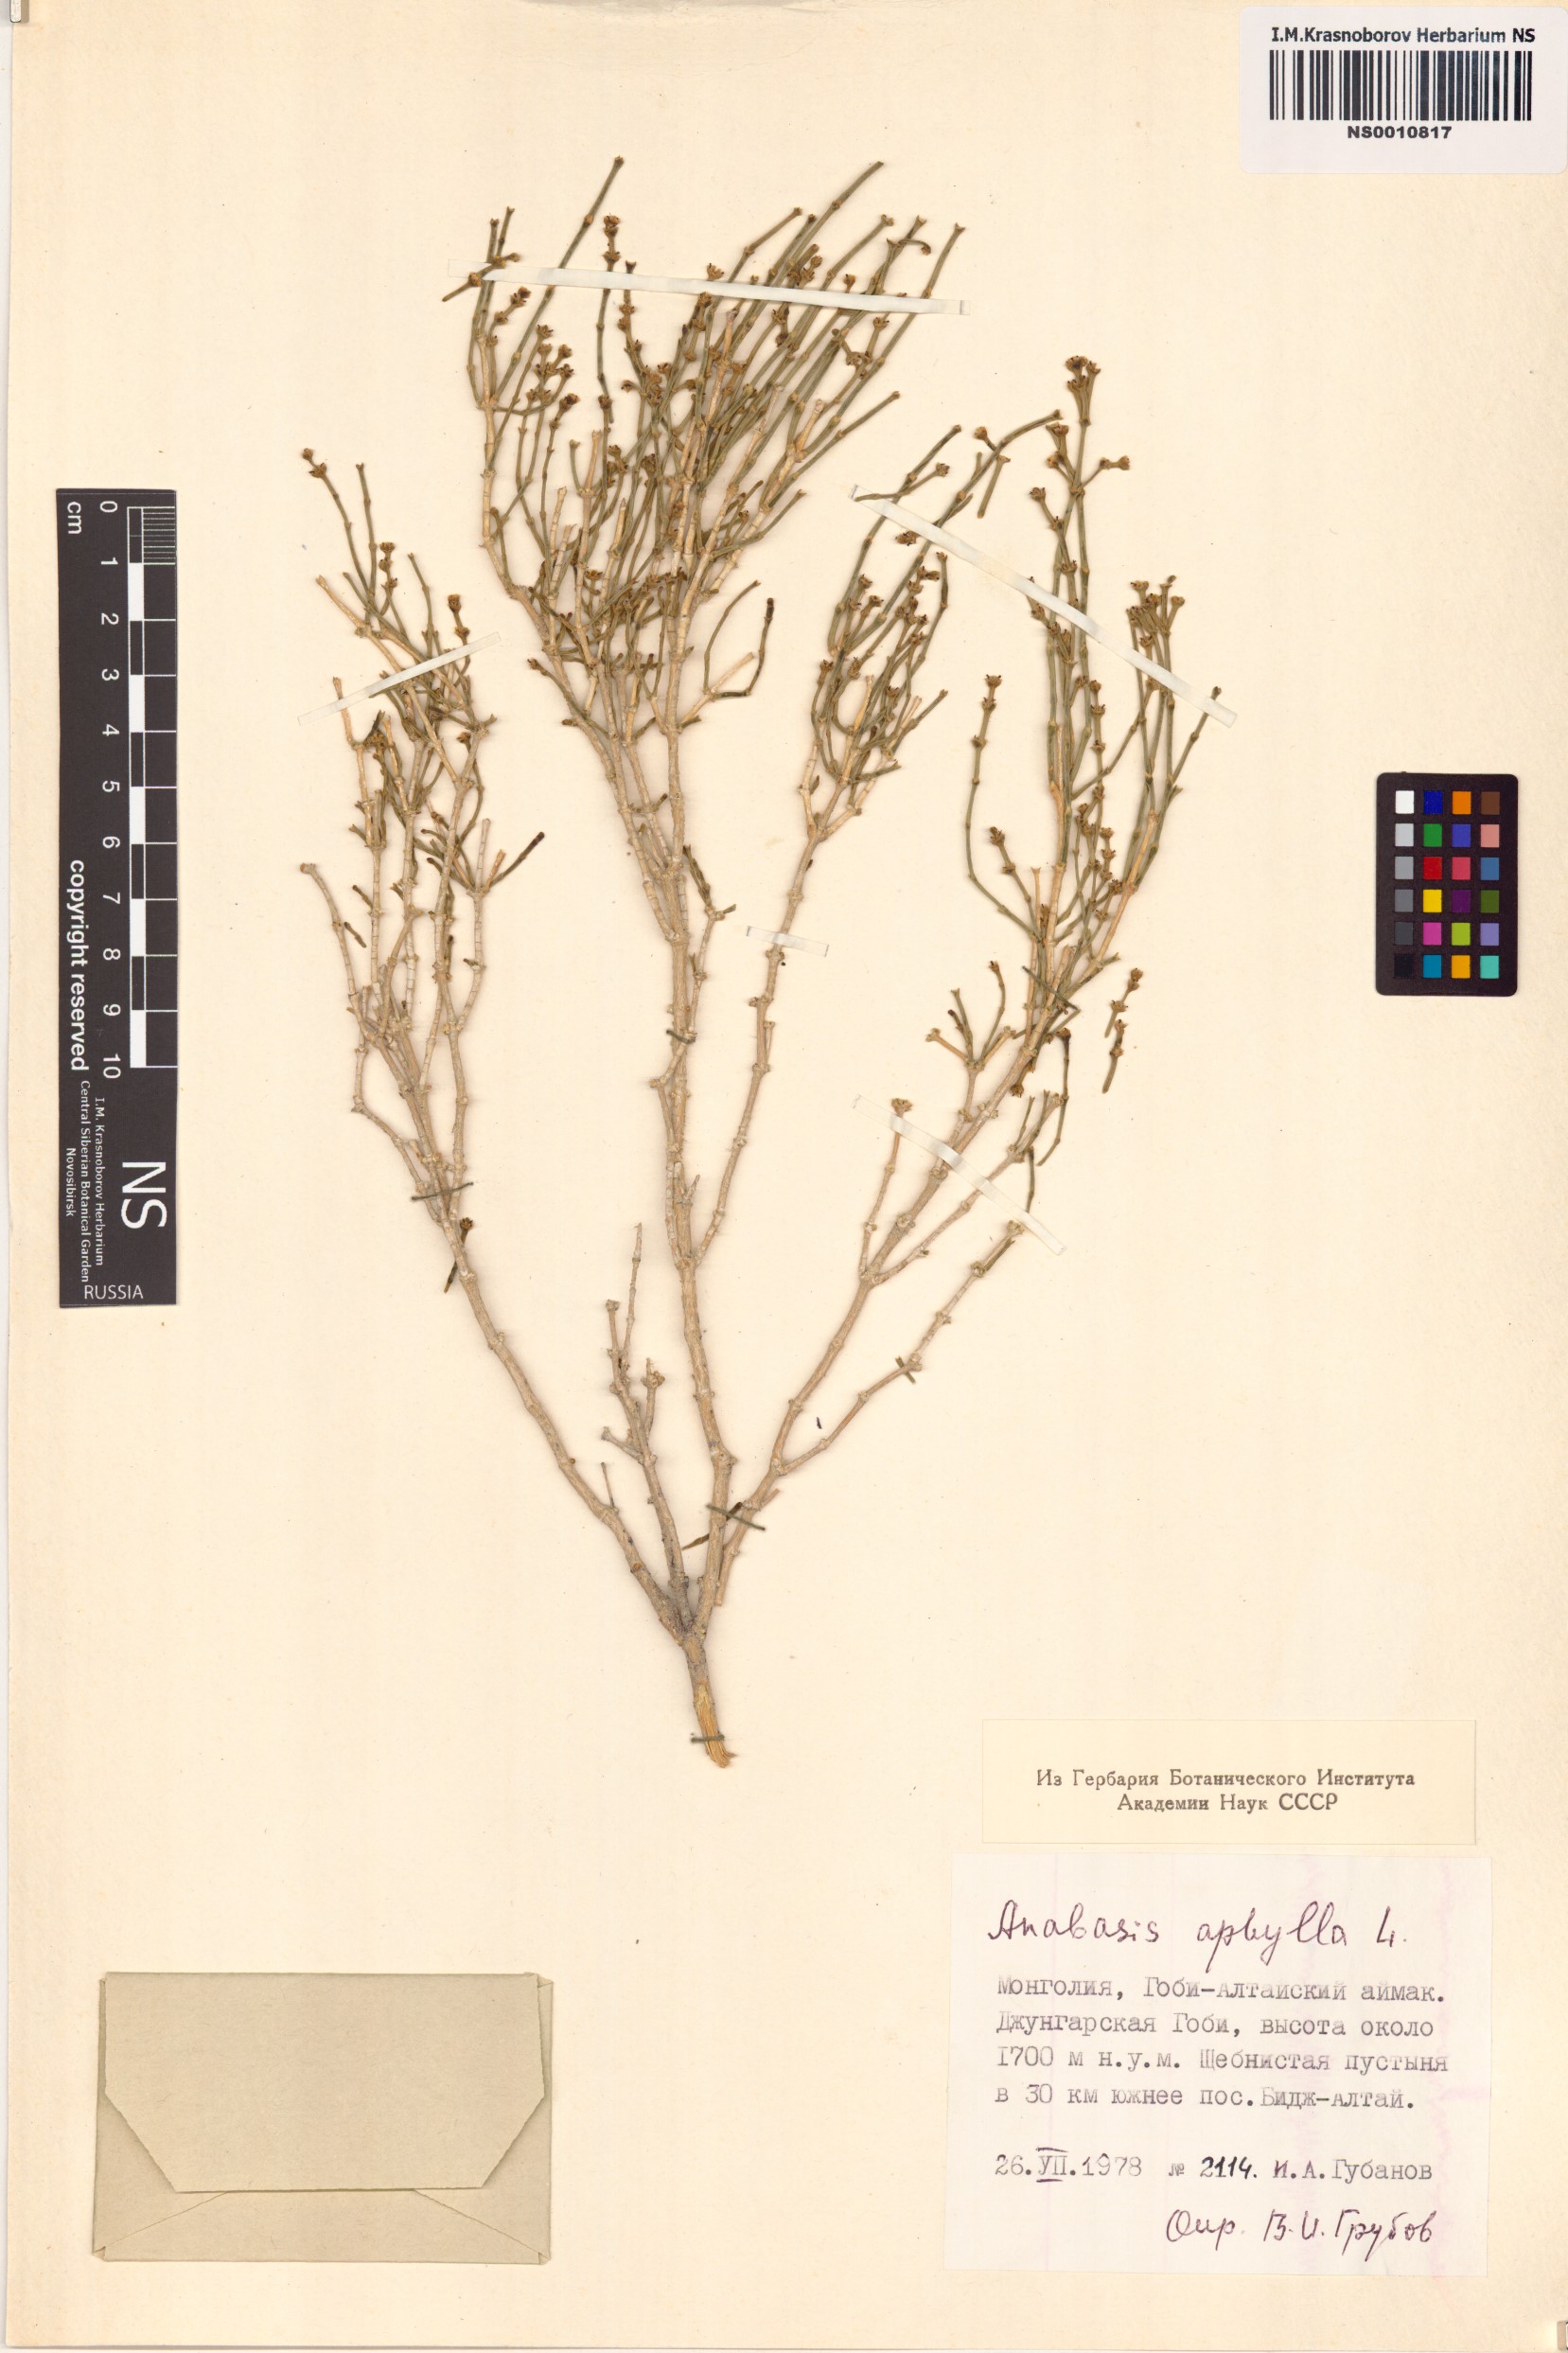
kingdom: Plantae
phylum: Tracheophyta
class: Magnoliopsida
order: Caryophyllales
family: Amaranthaceae
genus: Anabasis
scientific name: Anabasis aphylla
